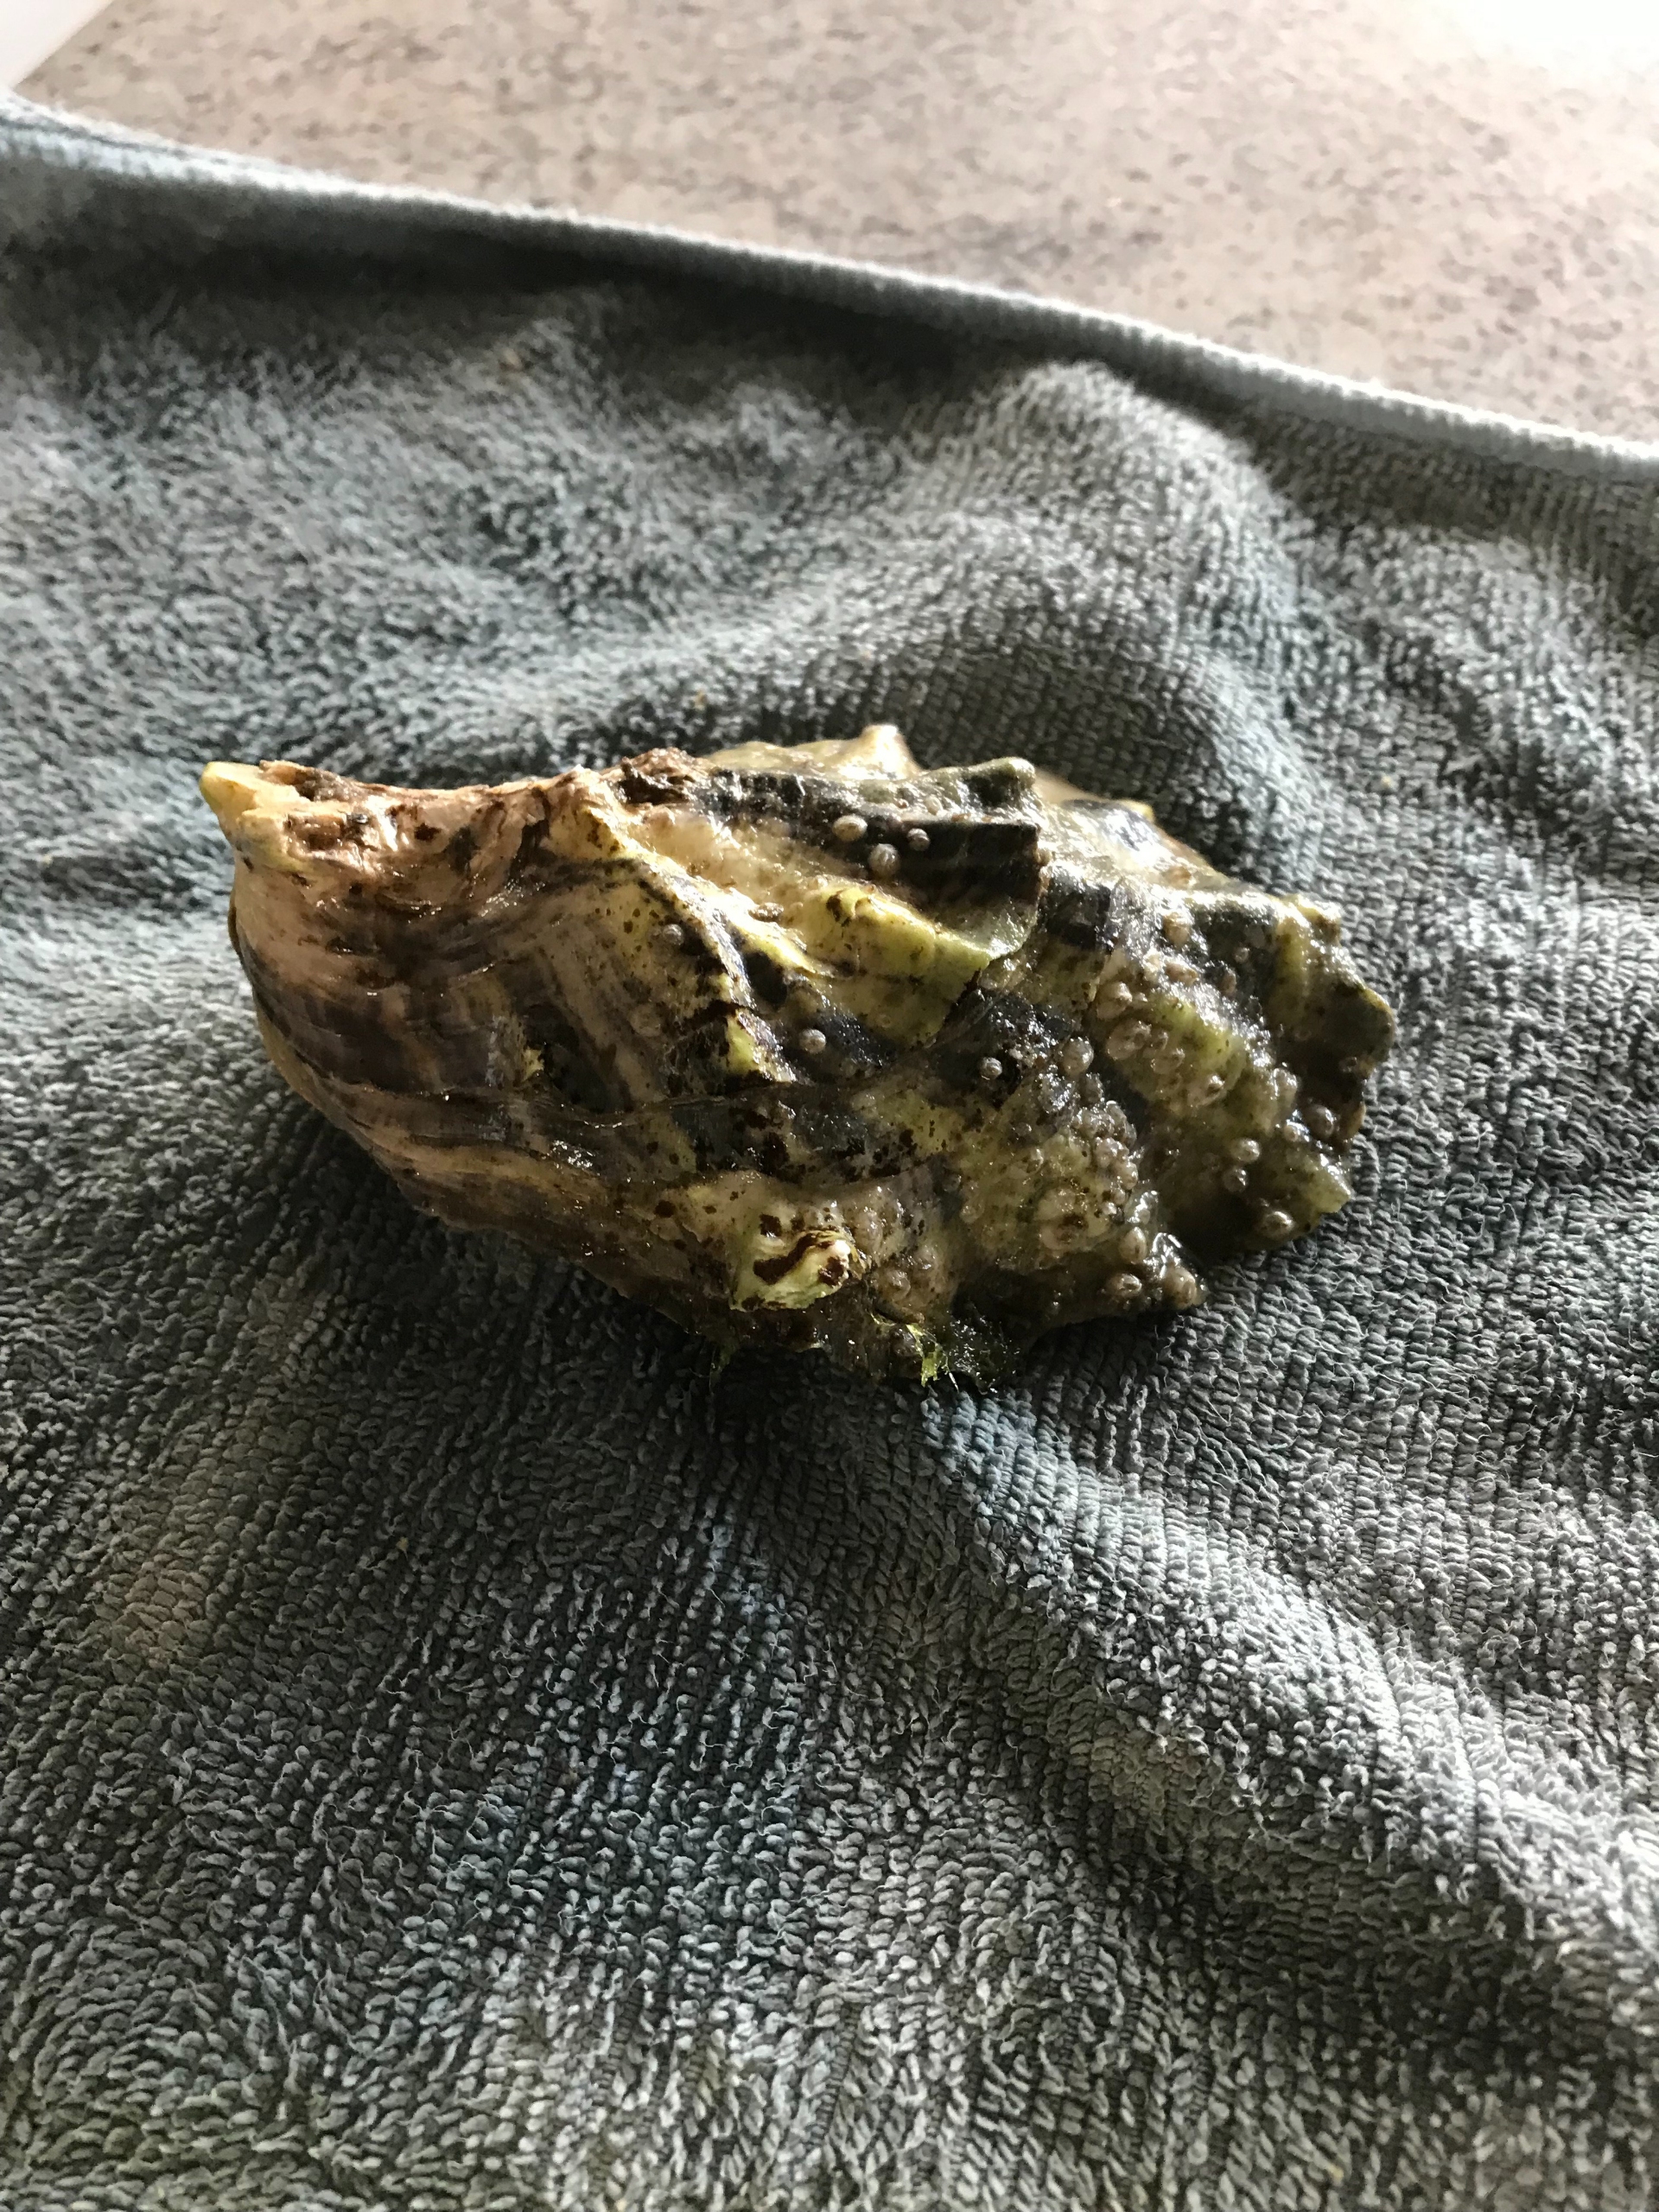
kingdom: Animalia
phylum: Mollusca
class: Bivalvia
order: Ostreida
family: Ostreidae
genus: Magallana
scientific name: Magallana gigas
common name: Stillehavsøsters
